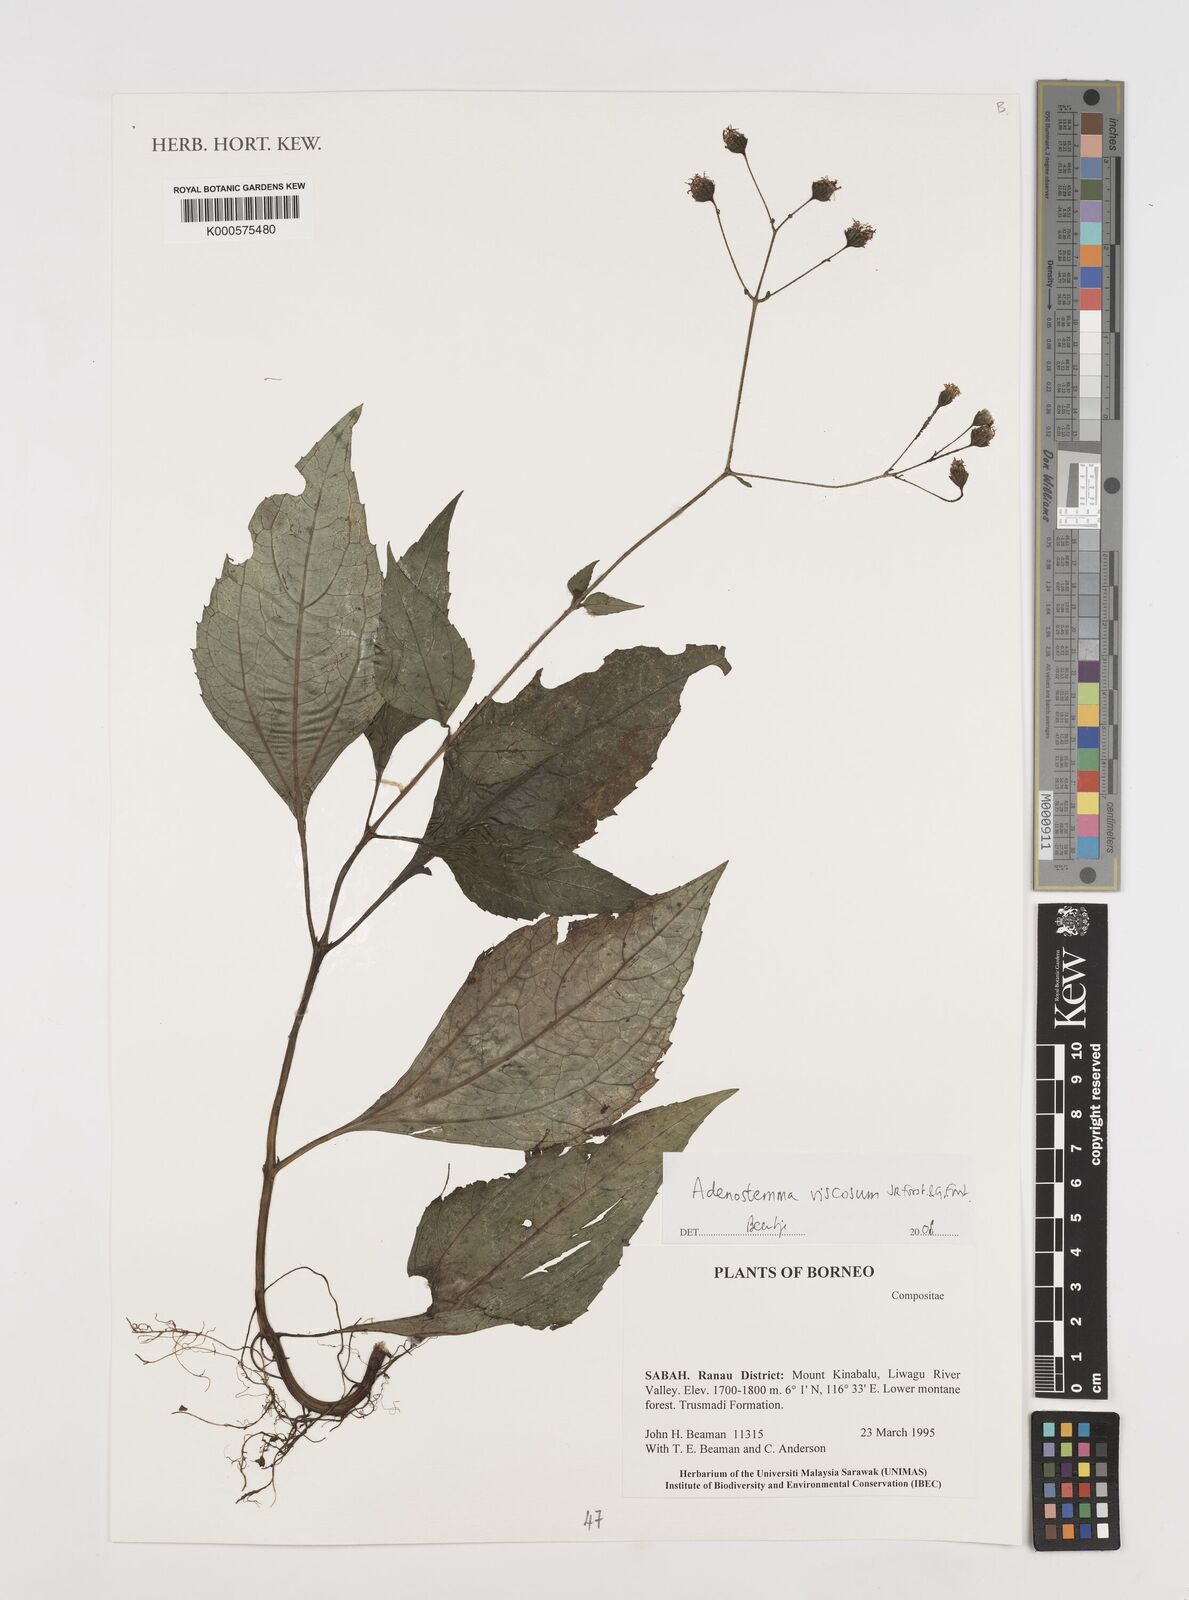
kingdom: Plantae
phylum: Tracheophyta
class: Magnoliopsida
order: Asterales
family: Asteraceae
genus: Adenostemma
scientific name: Adenostemma viscosum
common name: Dungweed
